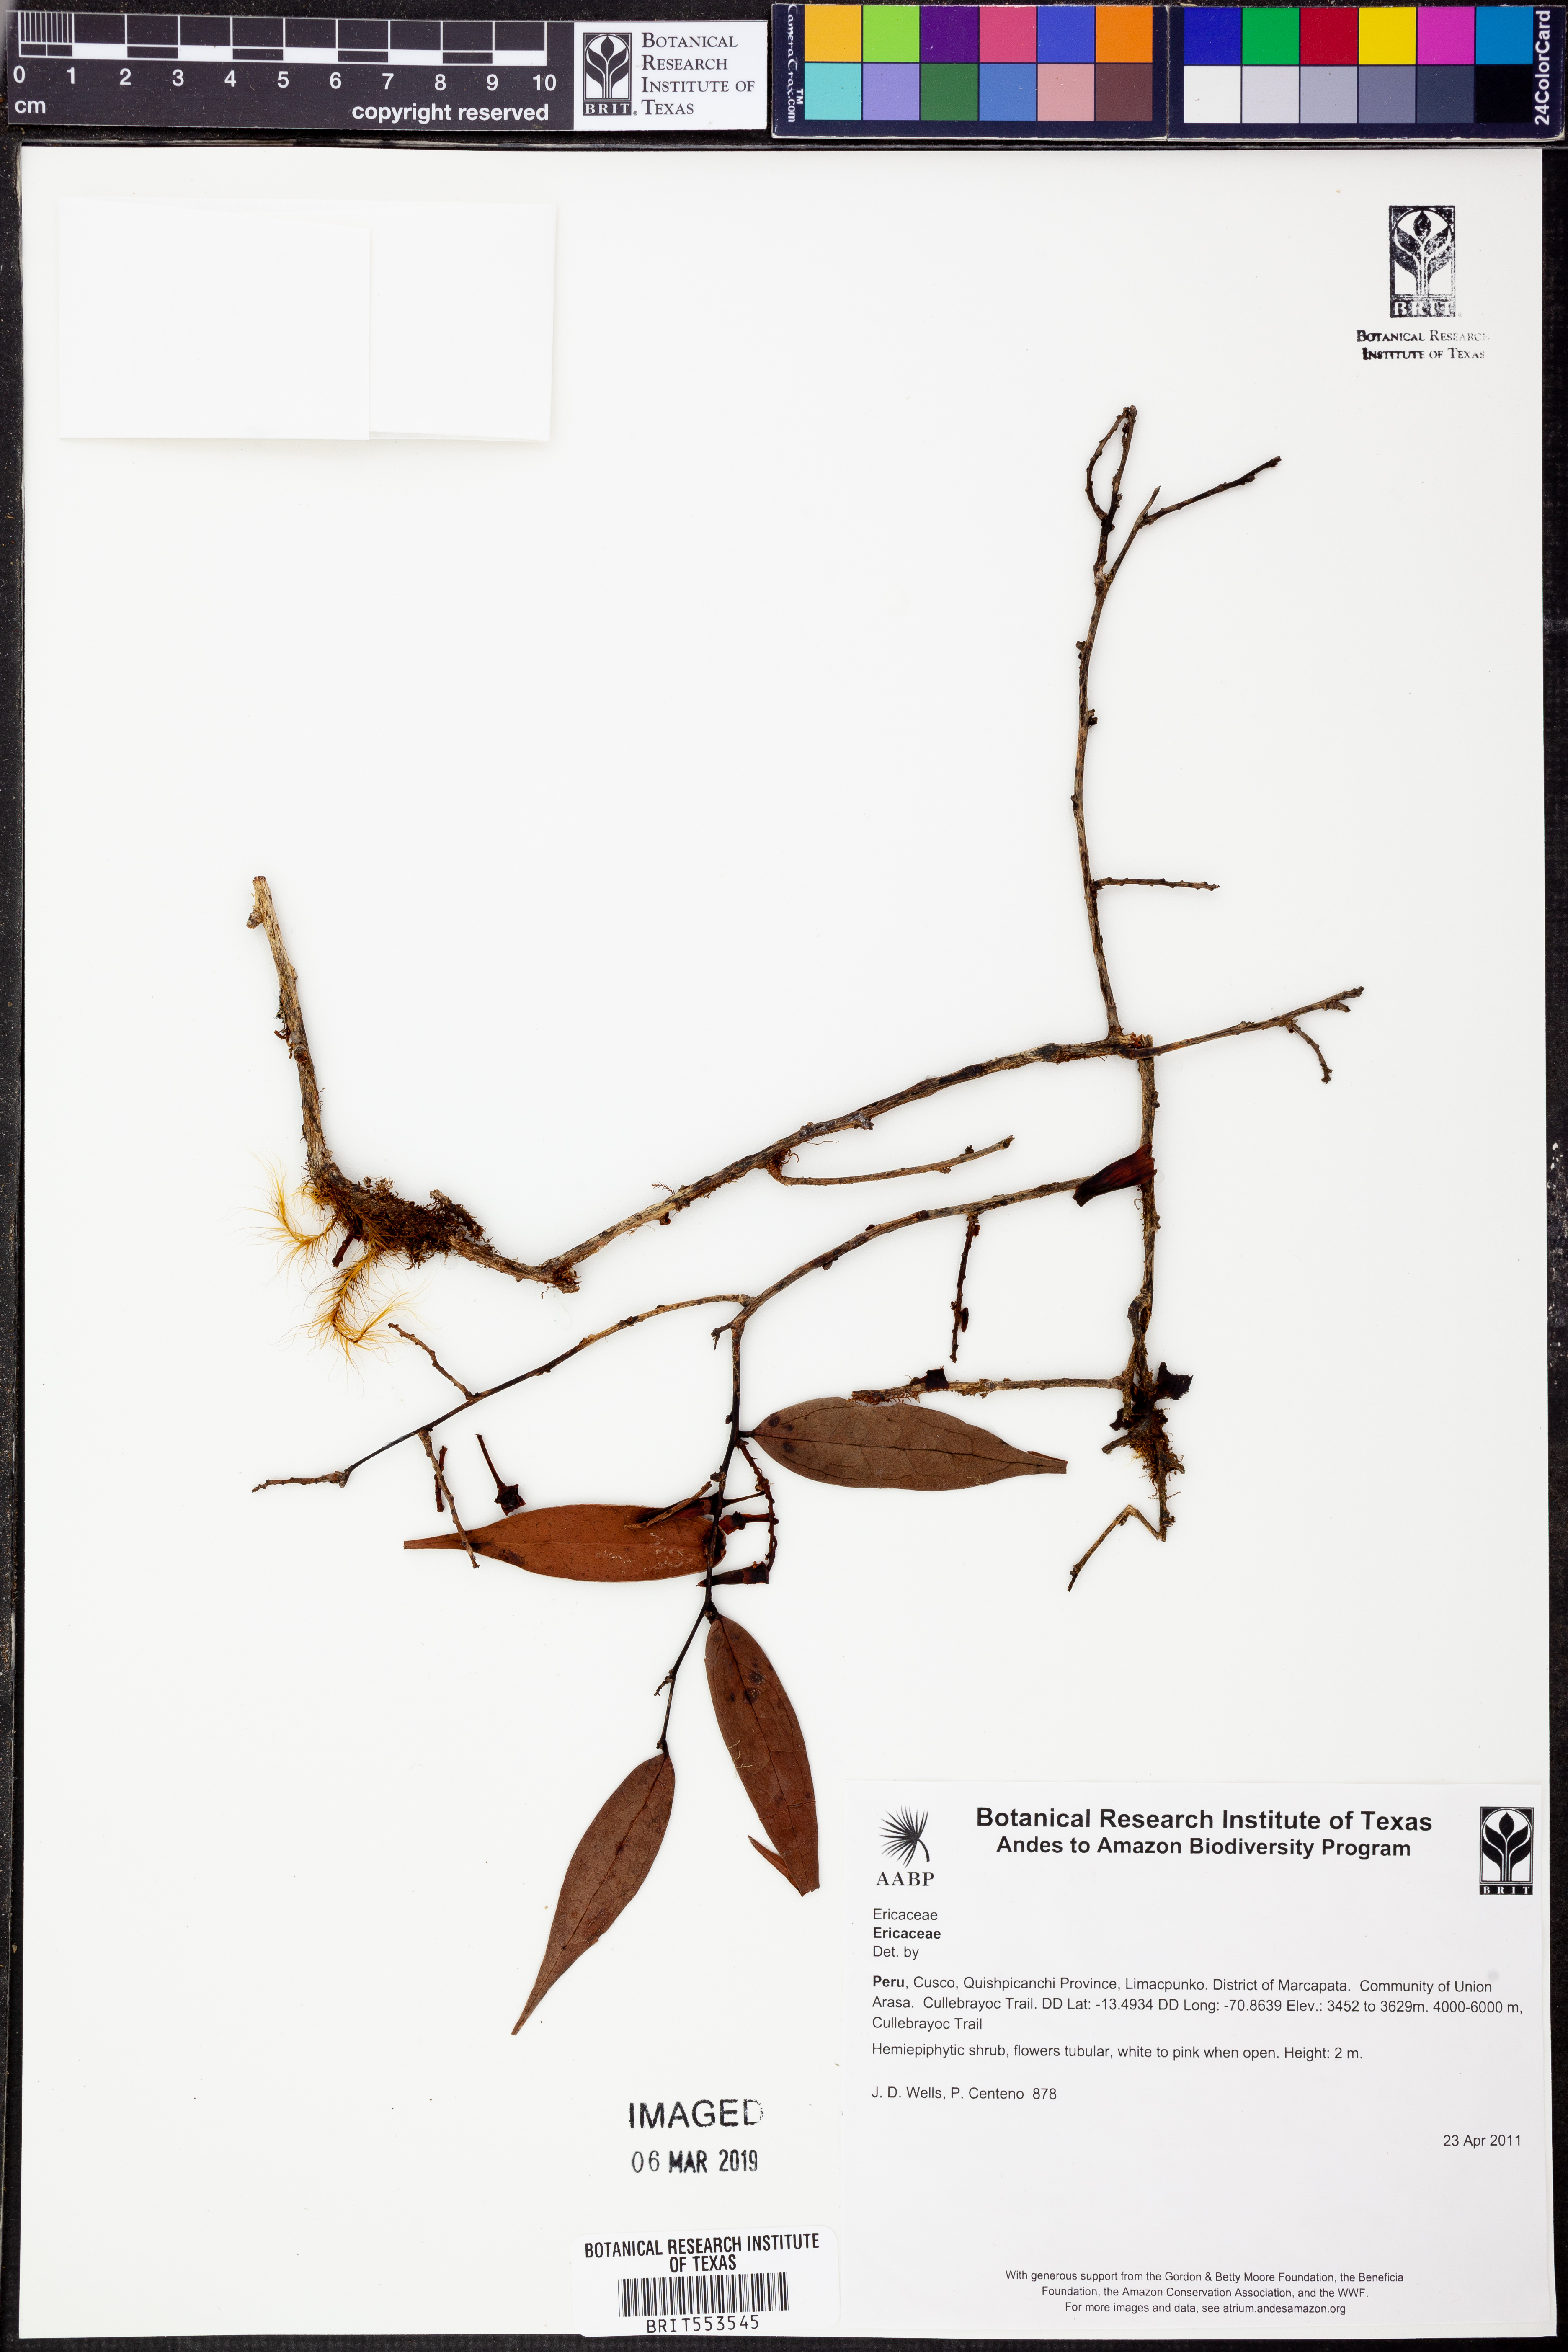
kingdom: Plantae
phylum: Tracheophyta
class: Magnoliopsida
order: Ericales
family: Ericaceae
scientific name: Ericaceae
